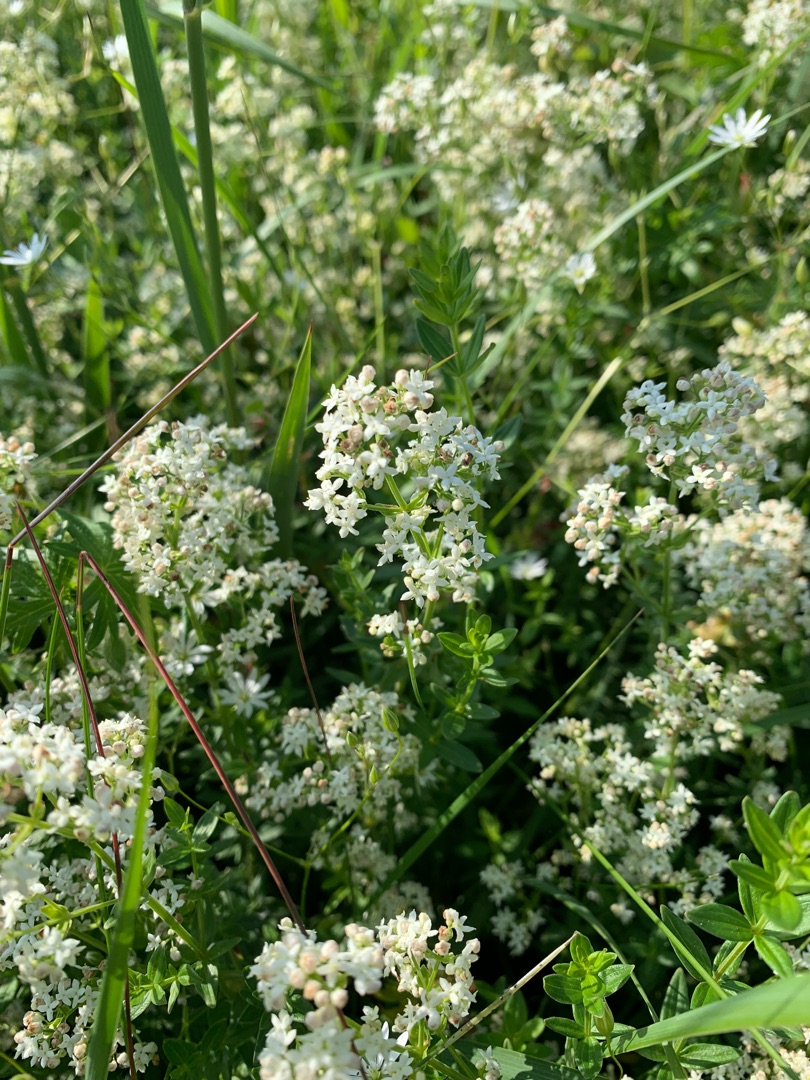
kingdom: Plantae
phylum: Tracheophyta
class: Magnoliopsida
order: Gentianales
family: Rubiaceae
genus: Galium
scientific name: Galium boreale
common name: Trenervet snerre
